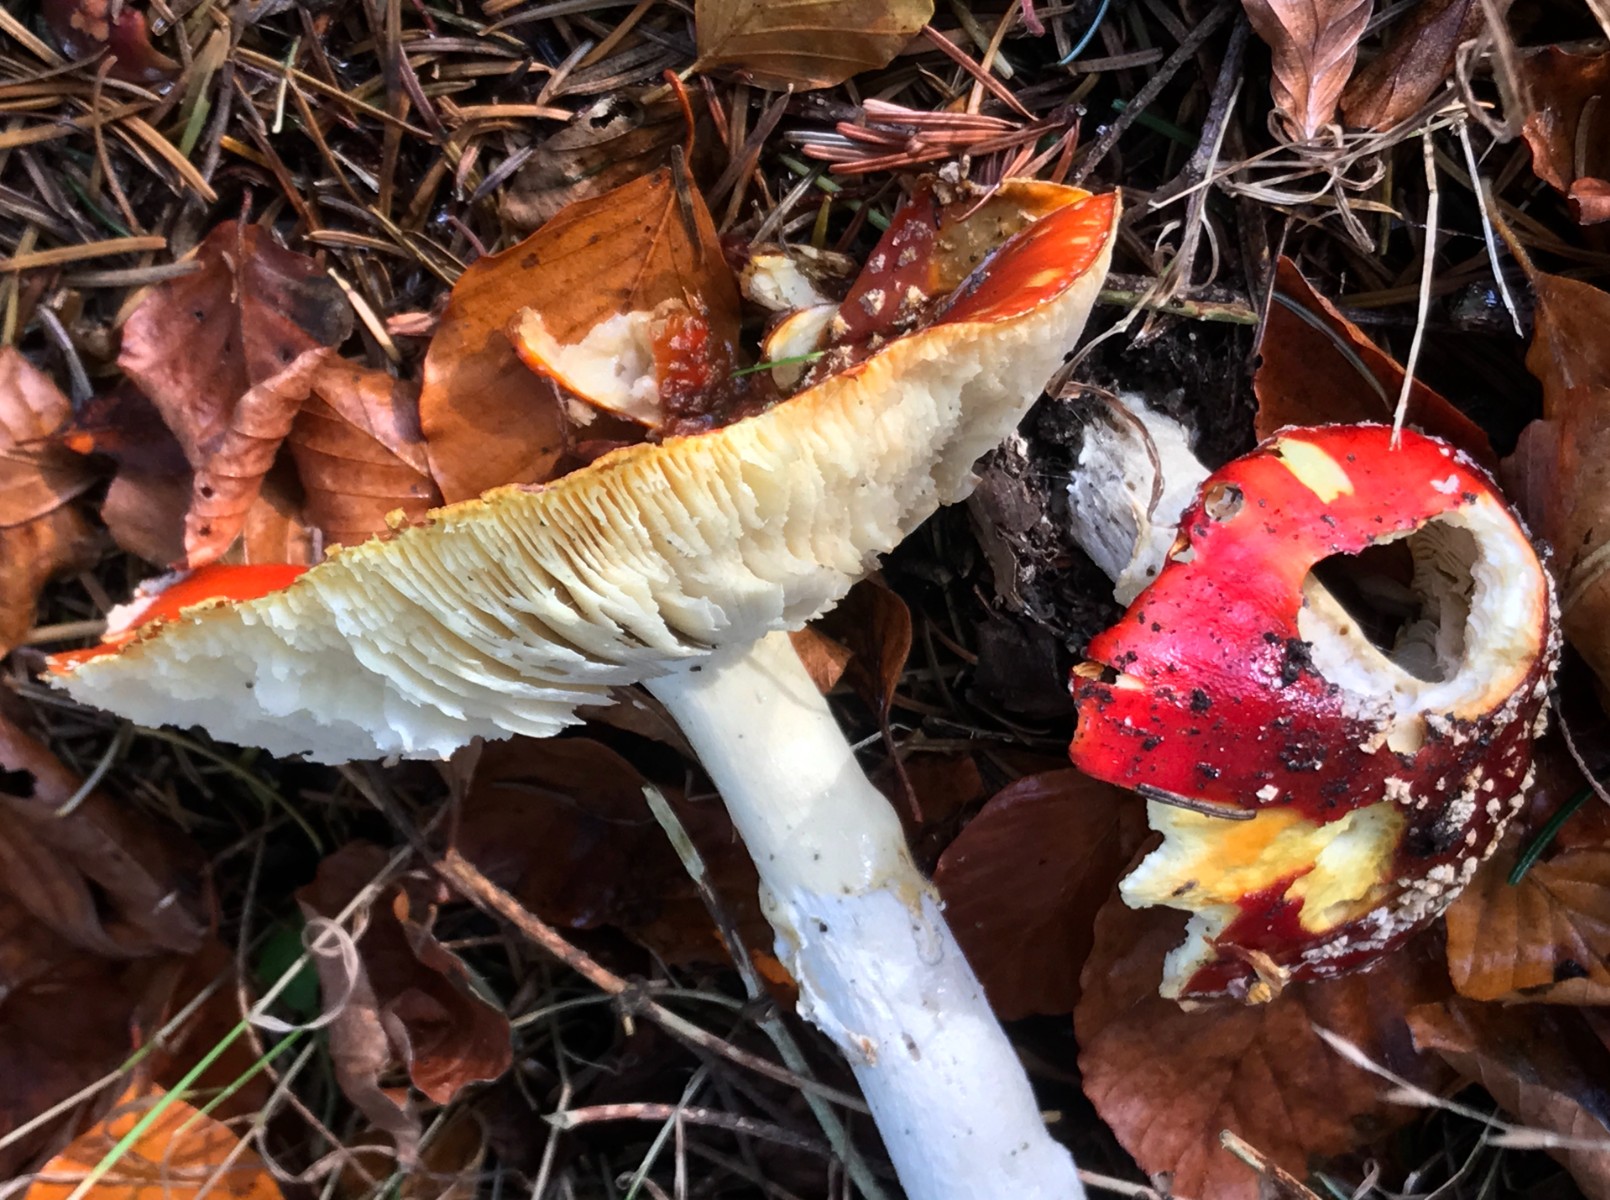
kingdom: Fungi
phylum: Basidiomycota
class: Agaricomycetes
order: Agaricales
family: Amanitaceae
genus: Amanita
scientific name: Amanita muscaria
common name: rød fluesvamp
